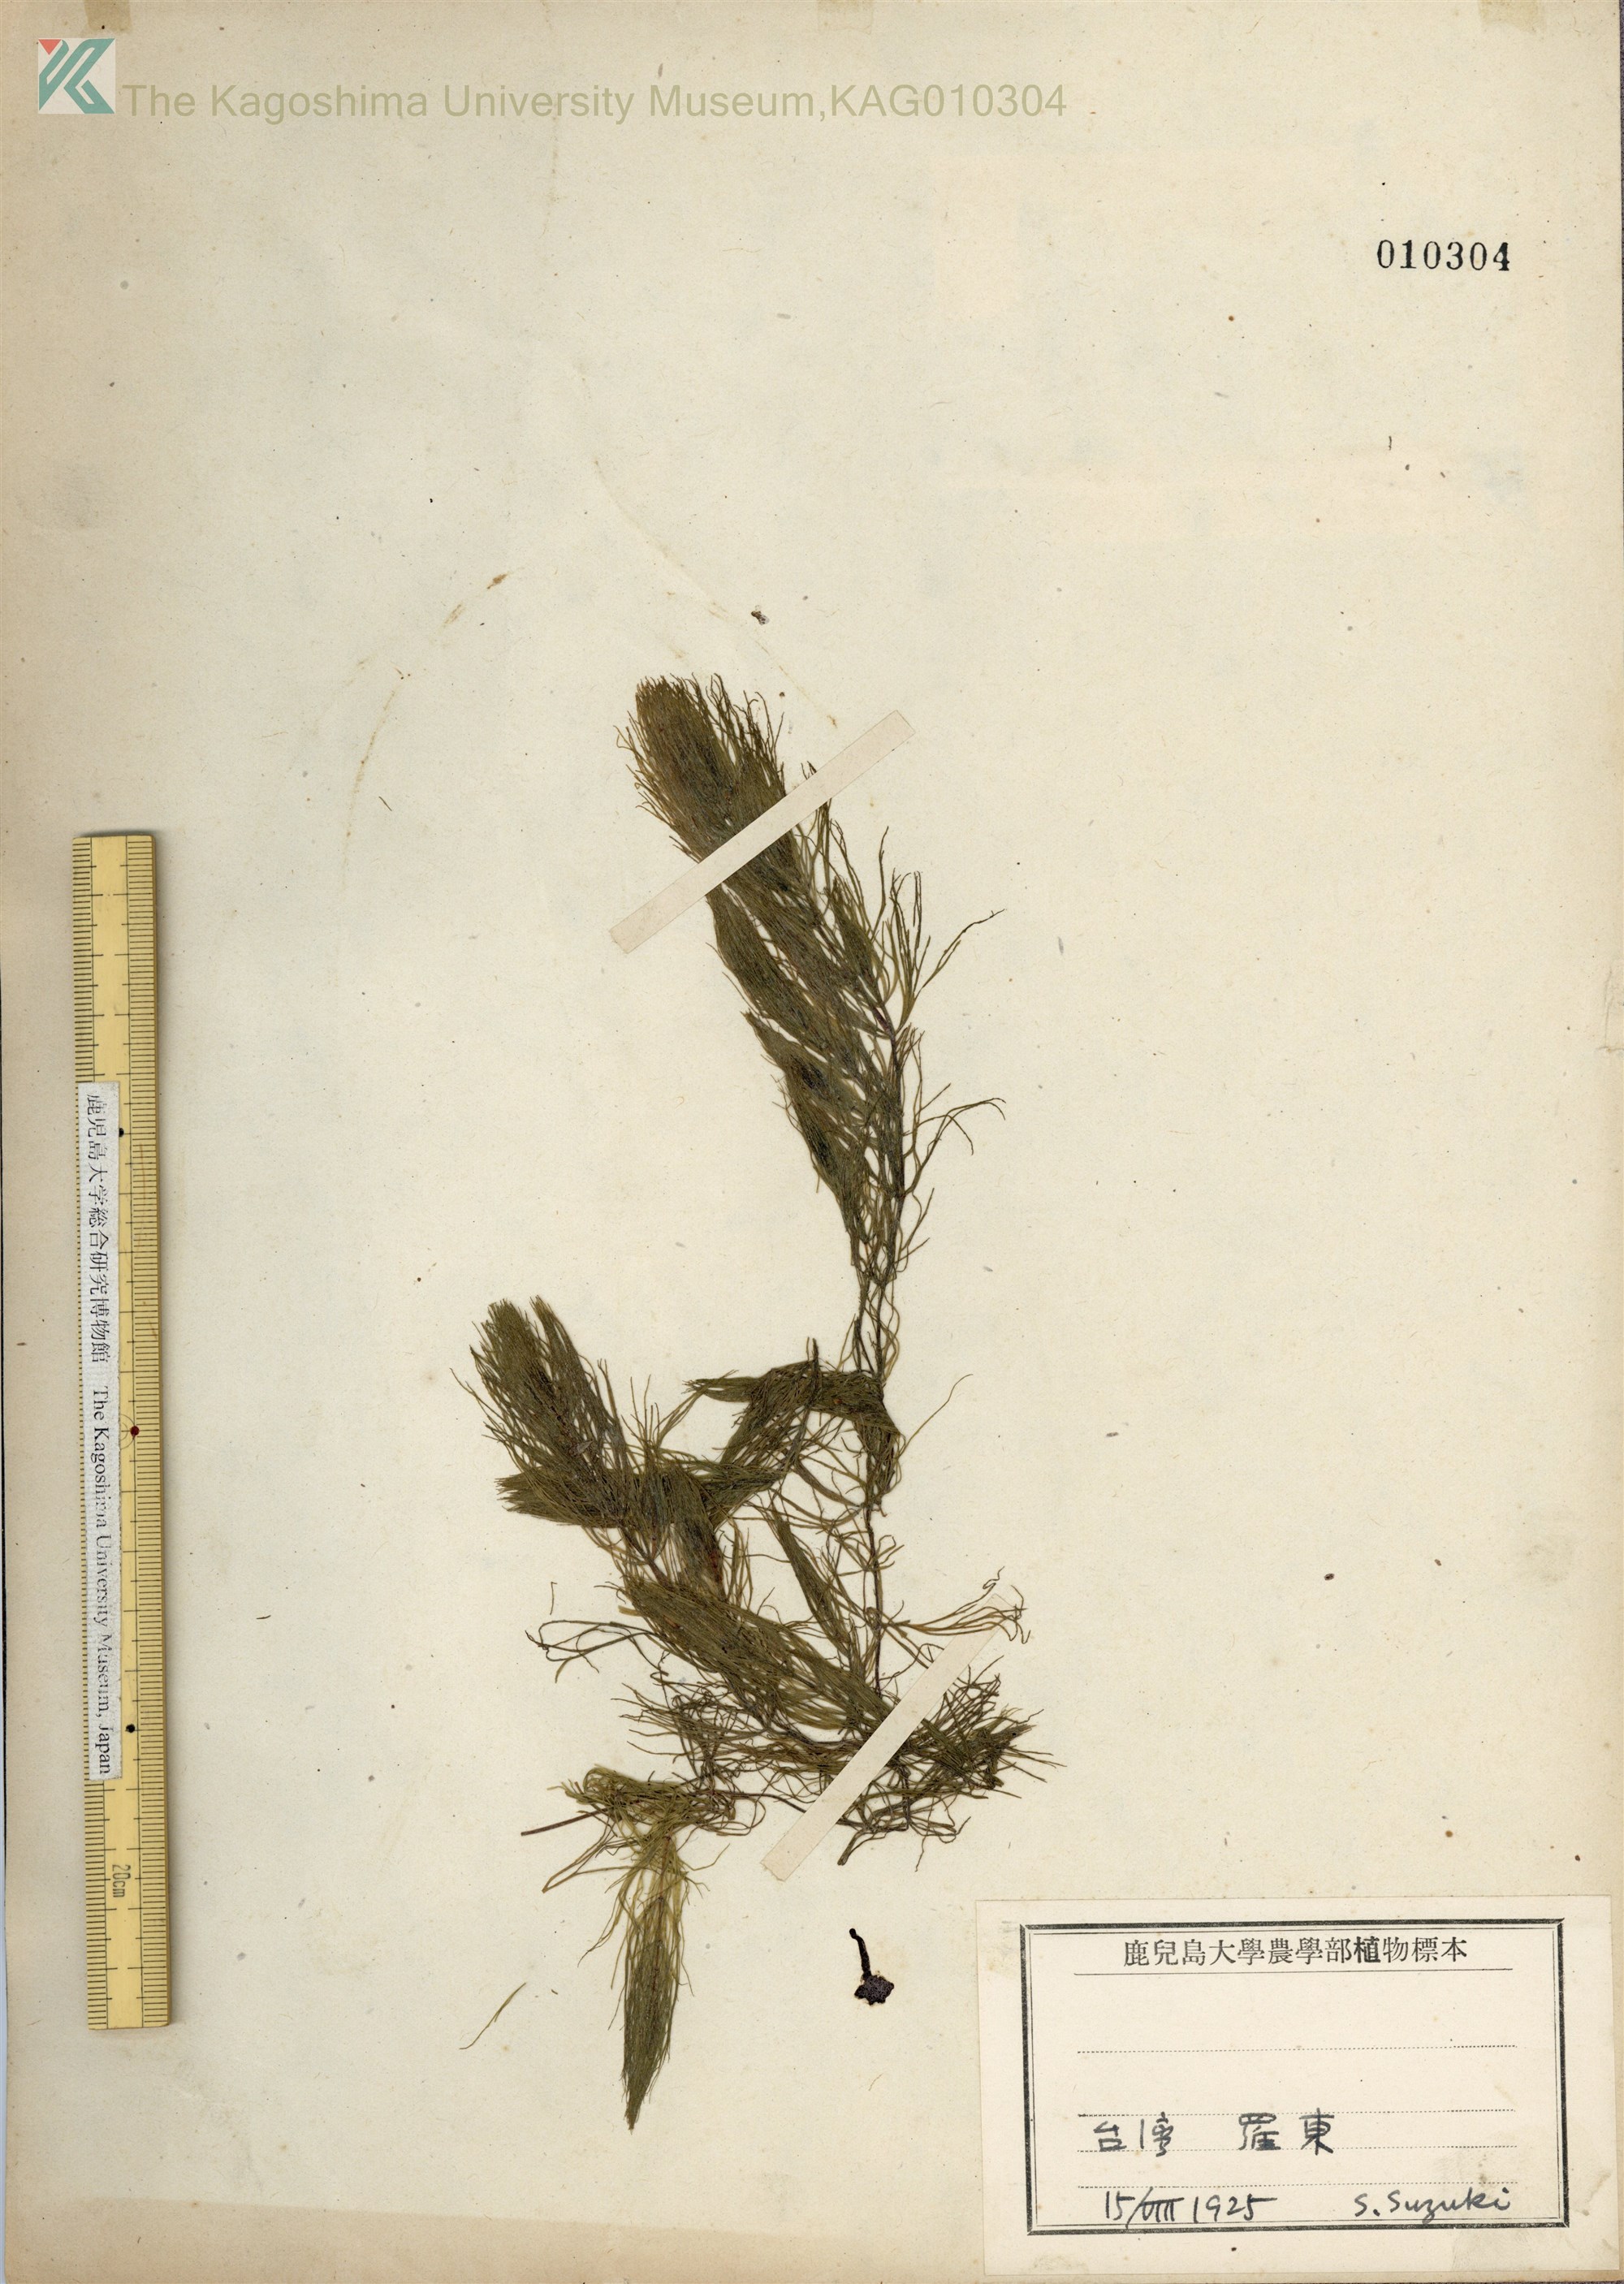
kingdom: Plantae
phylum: Tracheophyta
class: Magnoliopsida
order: Ceratophyllales
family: Ceratophyllaceae
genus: Ceratophyllum
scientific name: Ceratophyllum demersum
